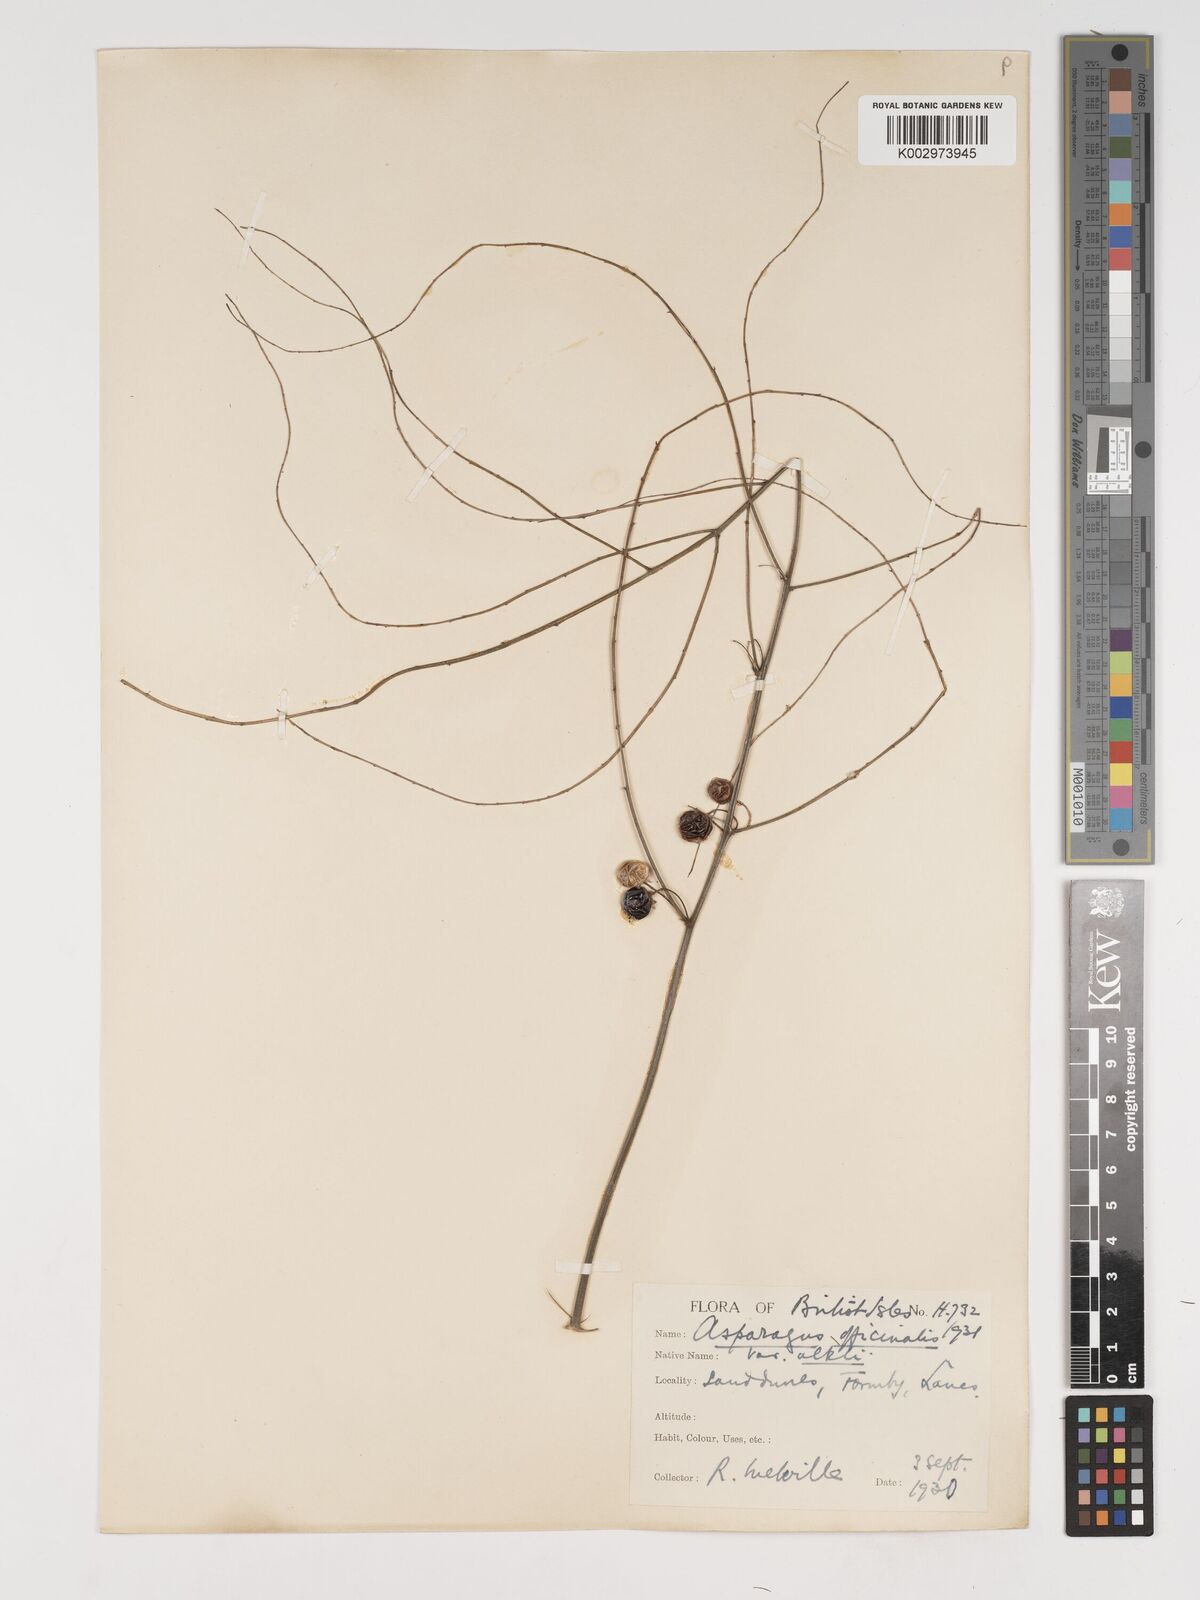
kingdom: Plantae
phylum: Tracheophyta
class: Liliopsida
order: Asparagales
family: Asparagaceae
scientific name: Asparagaceae
